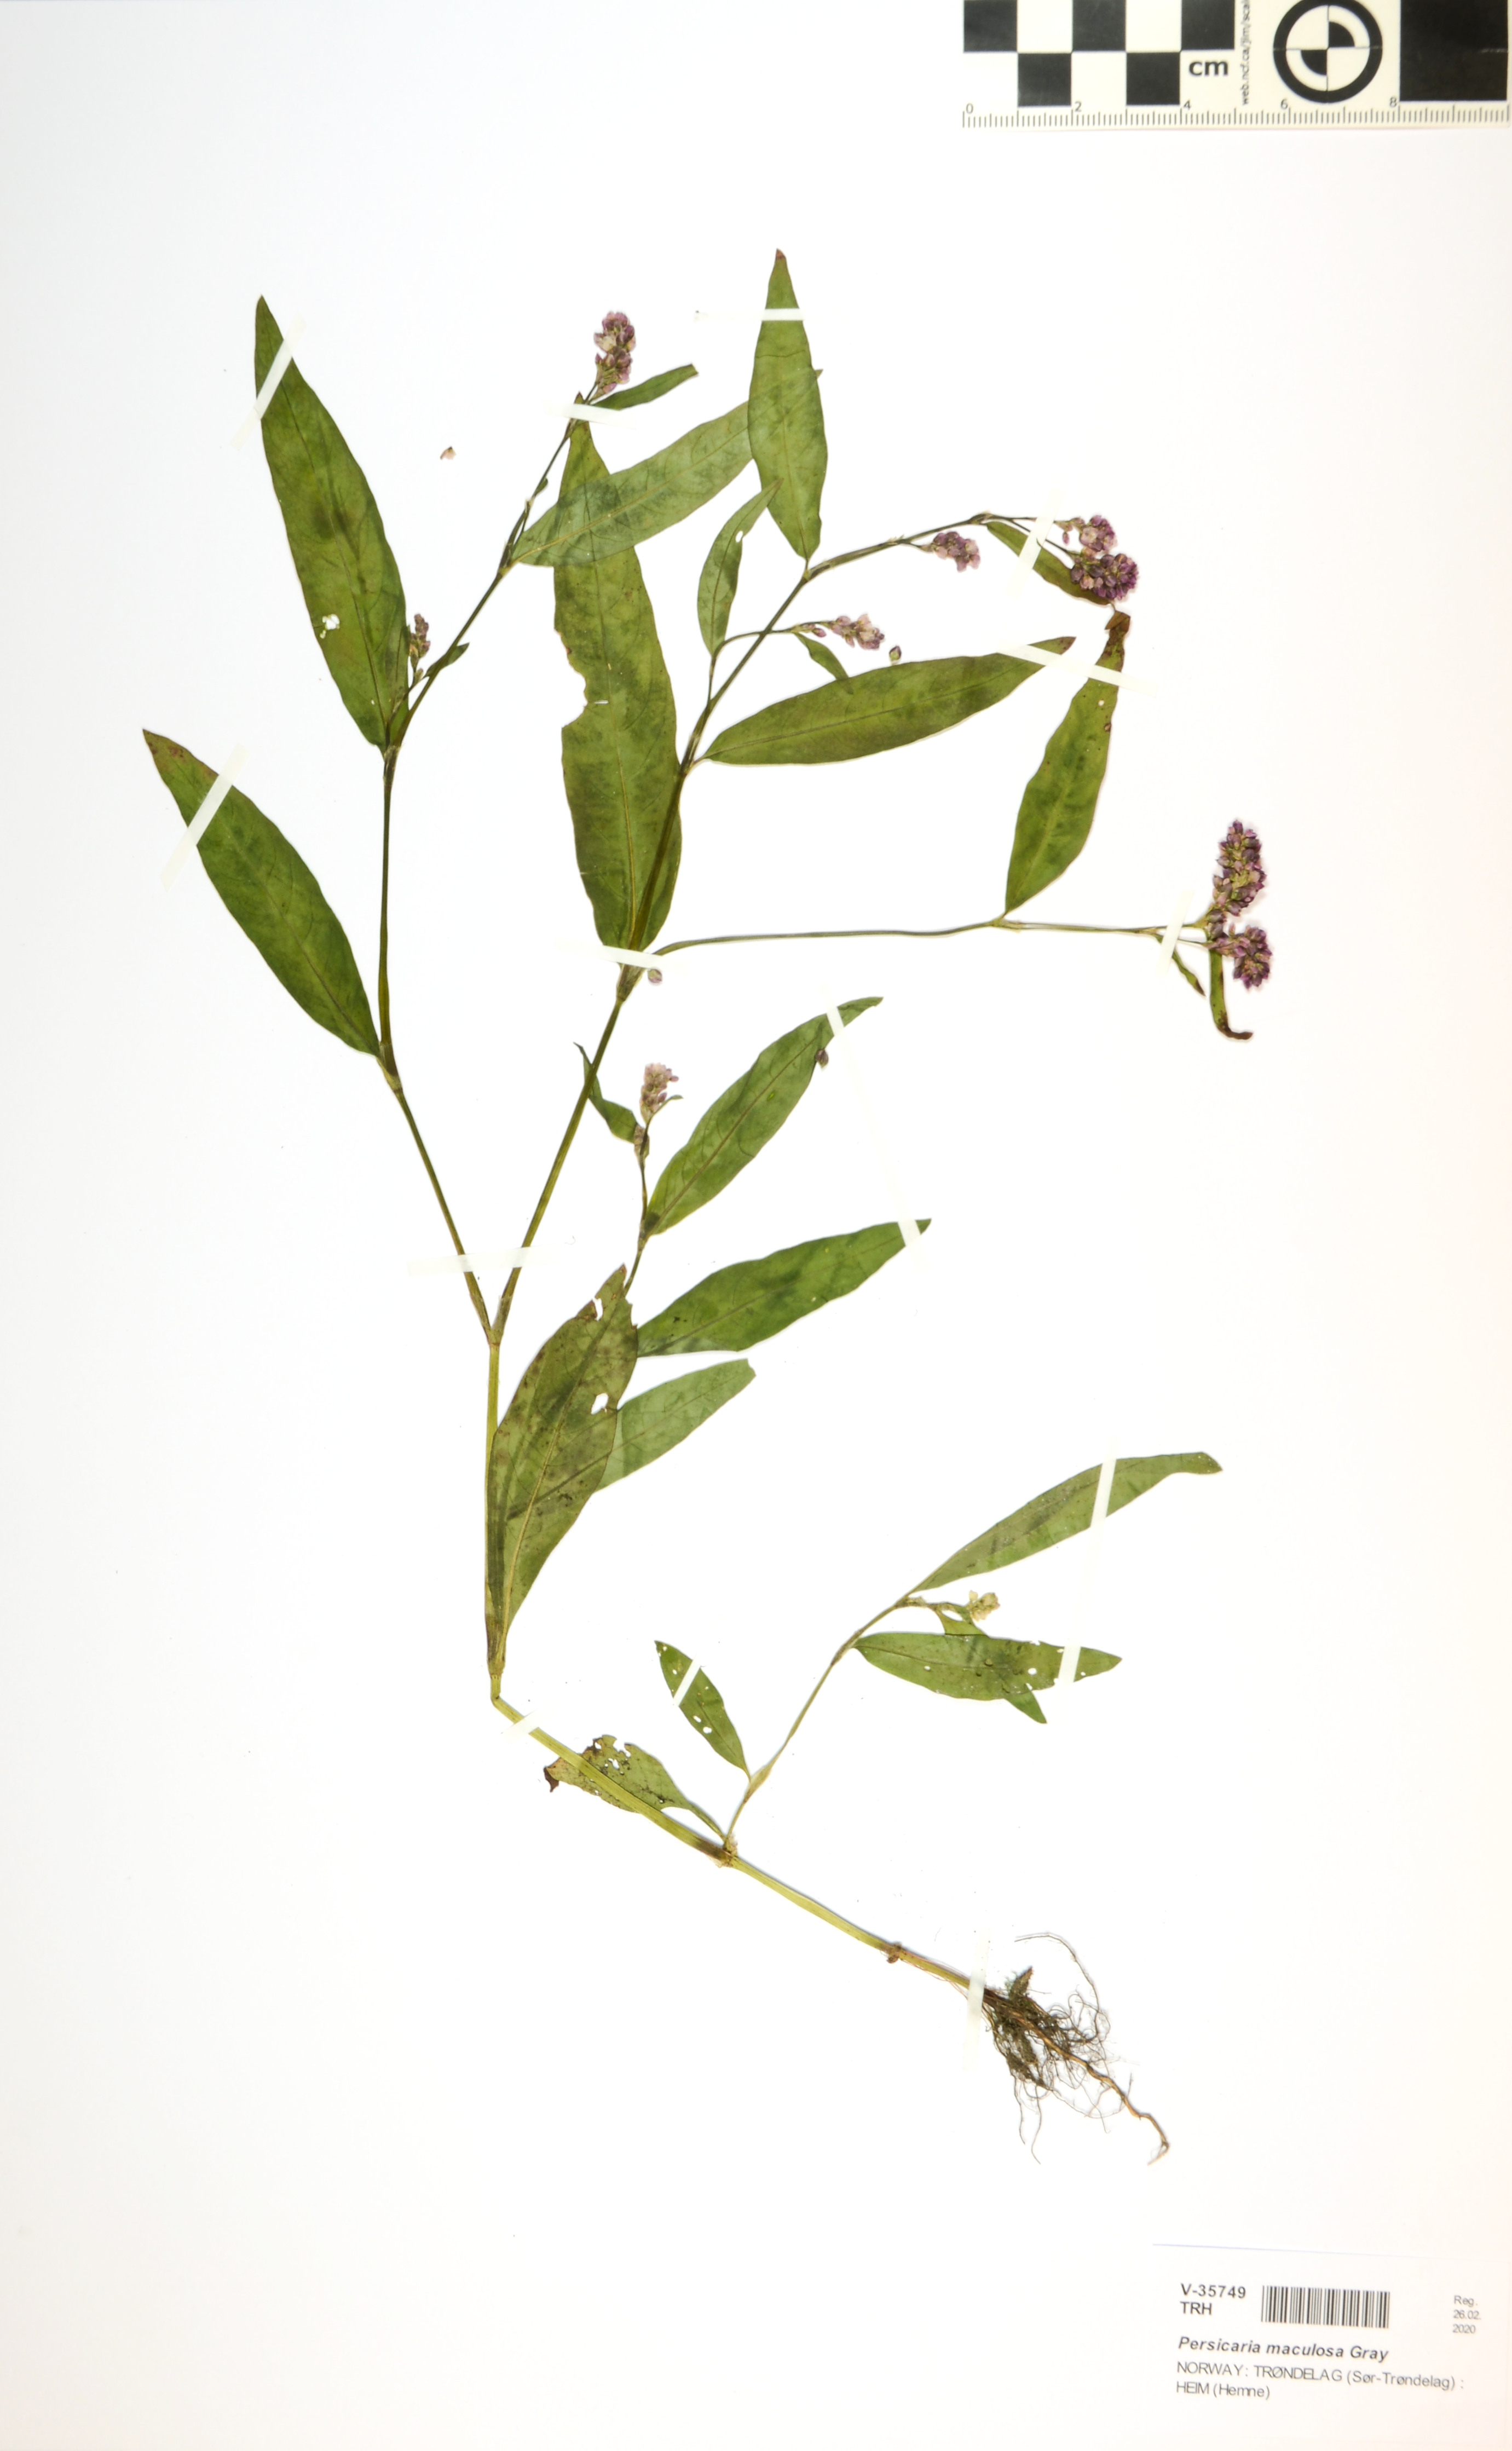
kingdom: Plantae
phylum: Tracheophyta
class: Magnoliopsida
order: Caryophyllales
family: Polygonaceae
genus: Persicaria
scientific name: Persicaria maculosa
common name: Redshank
